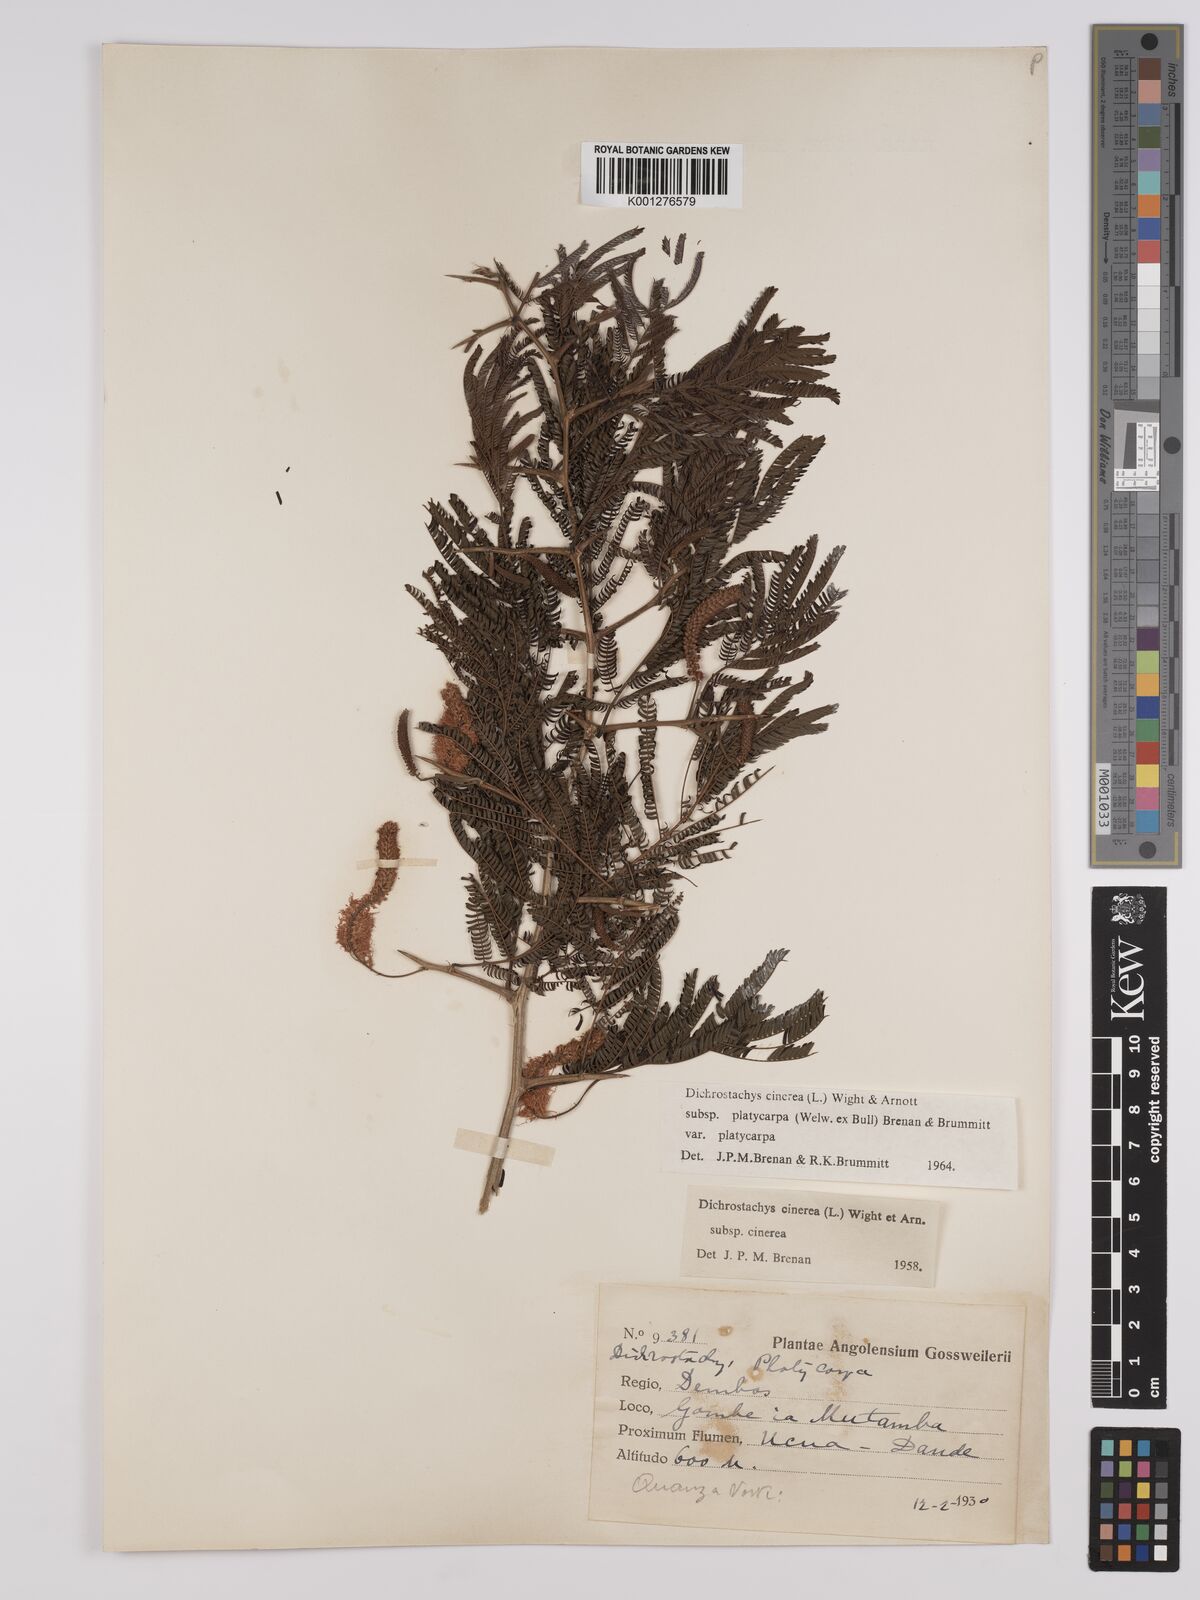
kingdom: Plantae
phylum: Tracheophyta
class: Magnoliopsida
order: Fabales
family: Fabaceae
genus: Dichrostachys
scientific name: Dichrostachys cinerea
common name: Sicklebush
